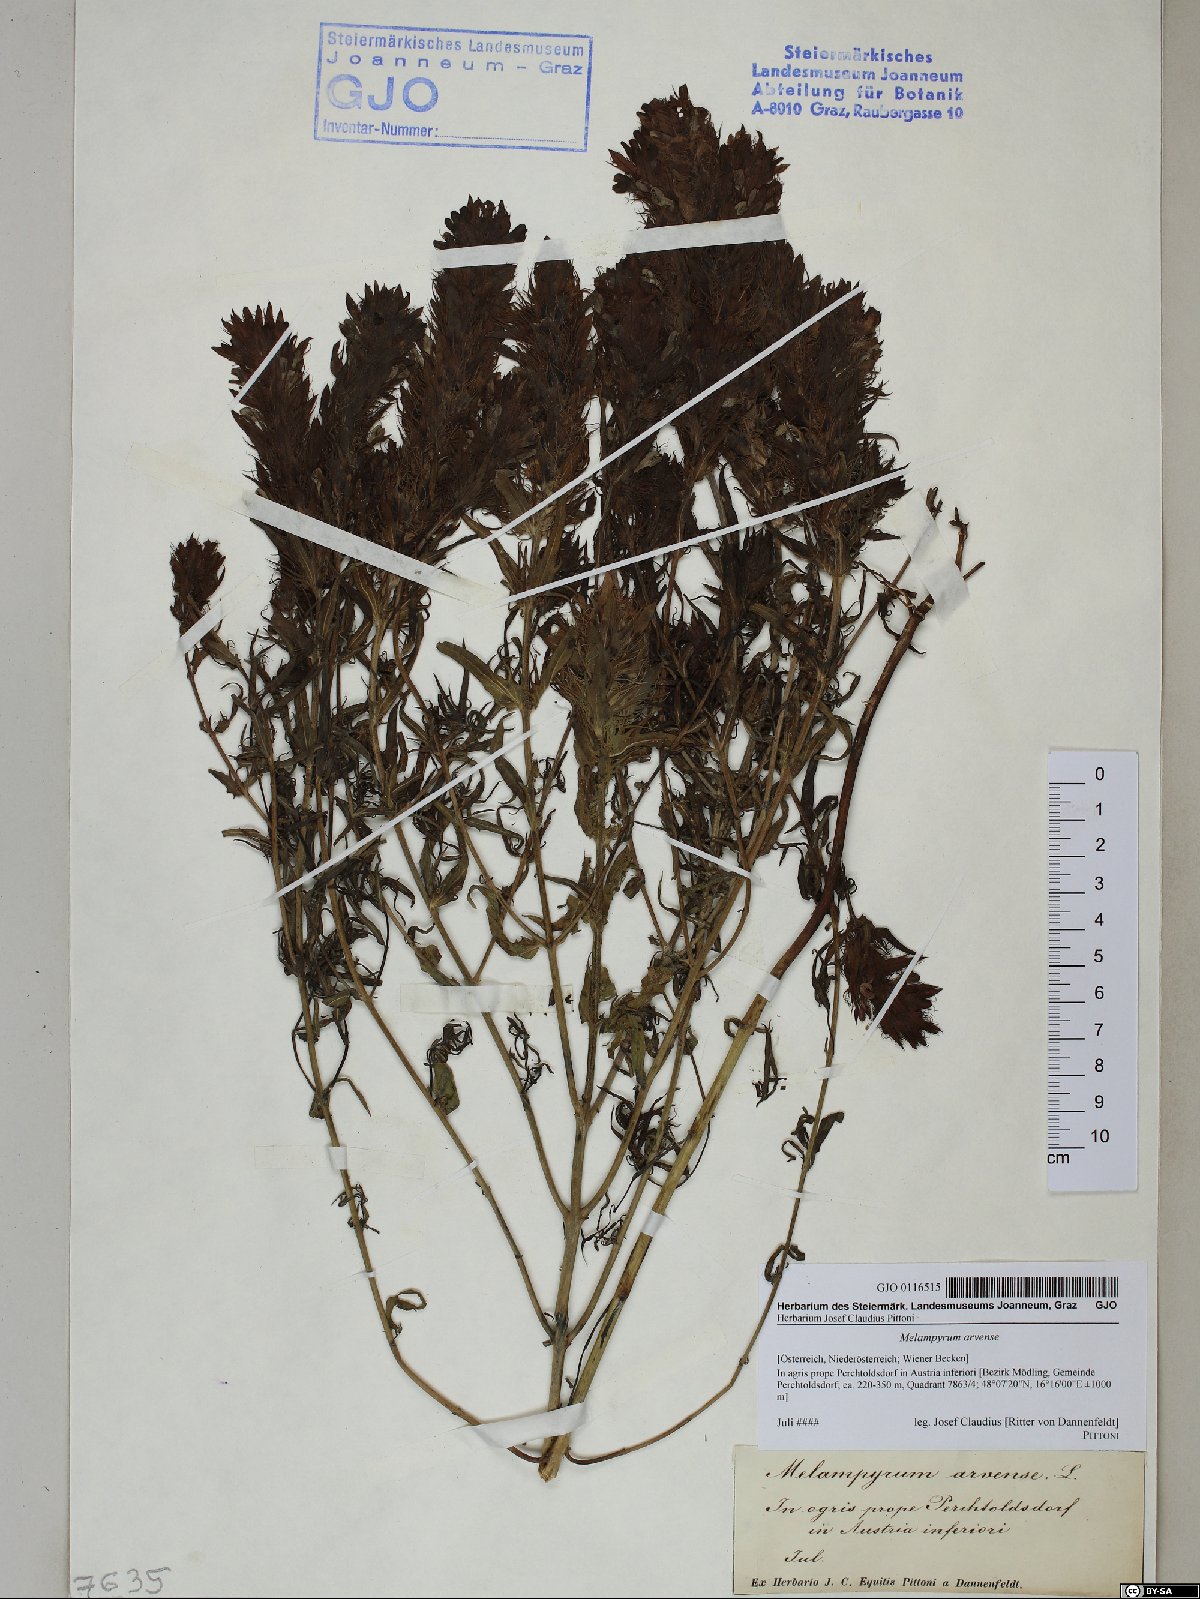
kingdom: Plantae
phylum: Tracheophyta
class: Magnoliopsida
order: Lamiales
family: Orobanchaceae
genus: Melampyrum
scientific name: Melampyrum arvense
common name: Field cow-wheat
